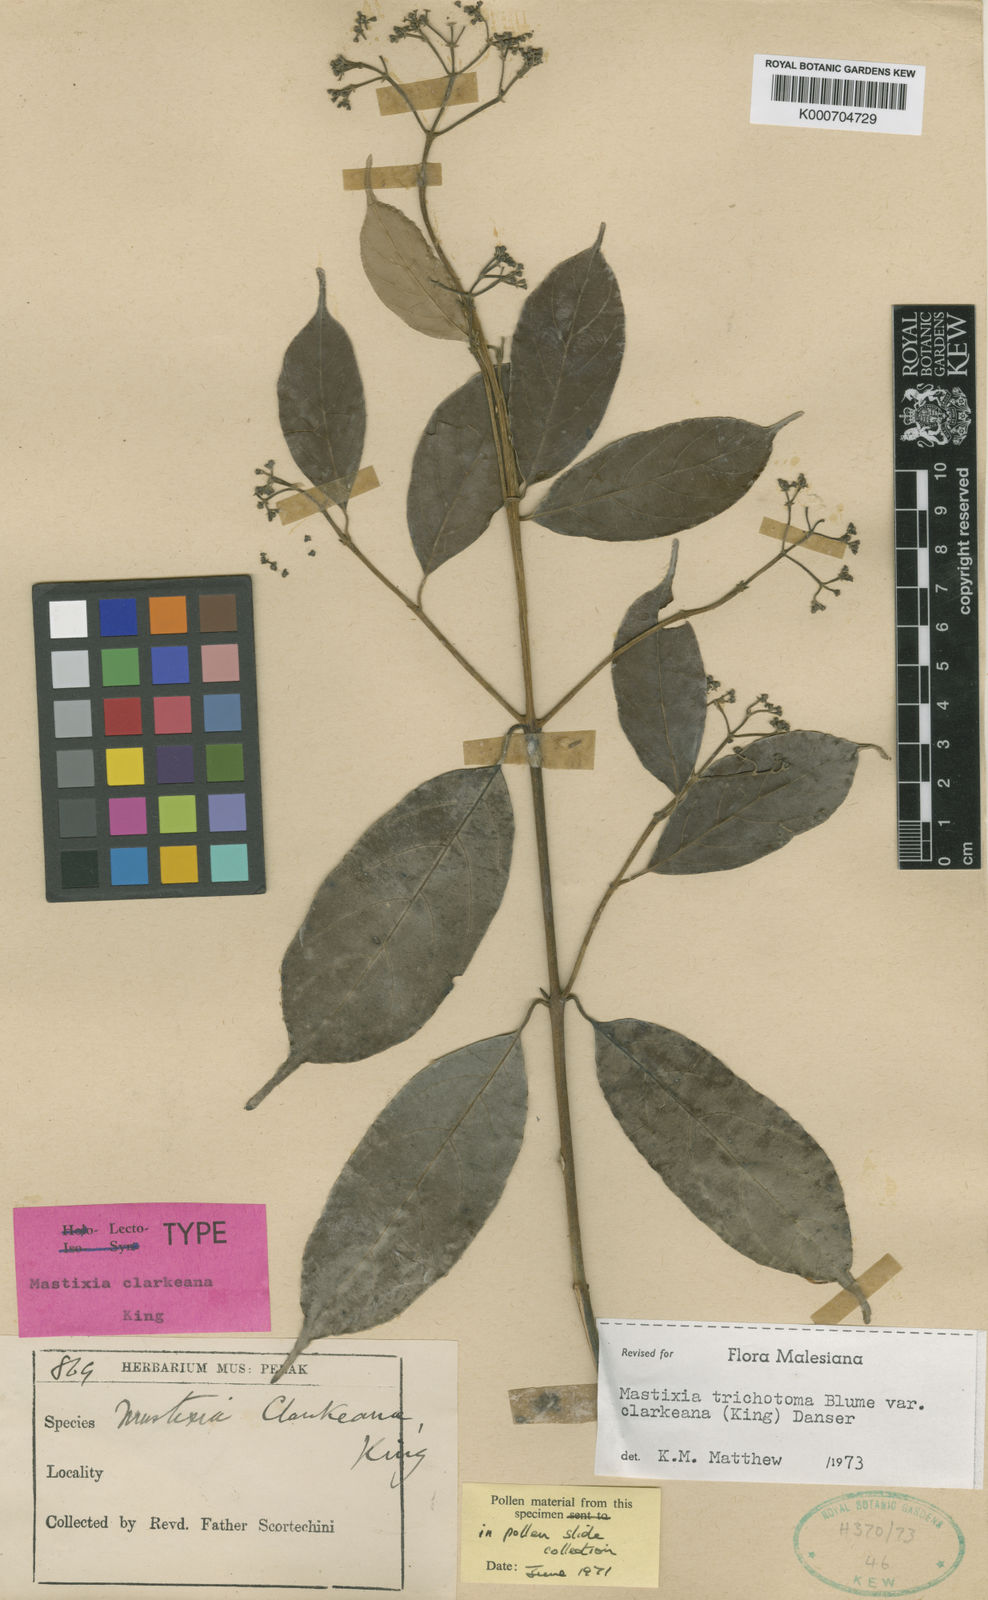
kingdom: Plantae
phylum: Tracheophyta
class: Magnoliopsida
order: Cornales
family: Nyssaceae
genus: Mastixia
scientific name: Mastixia trichotoma
